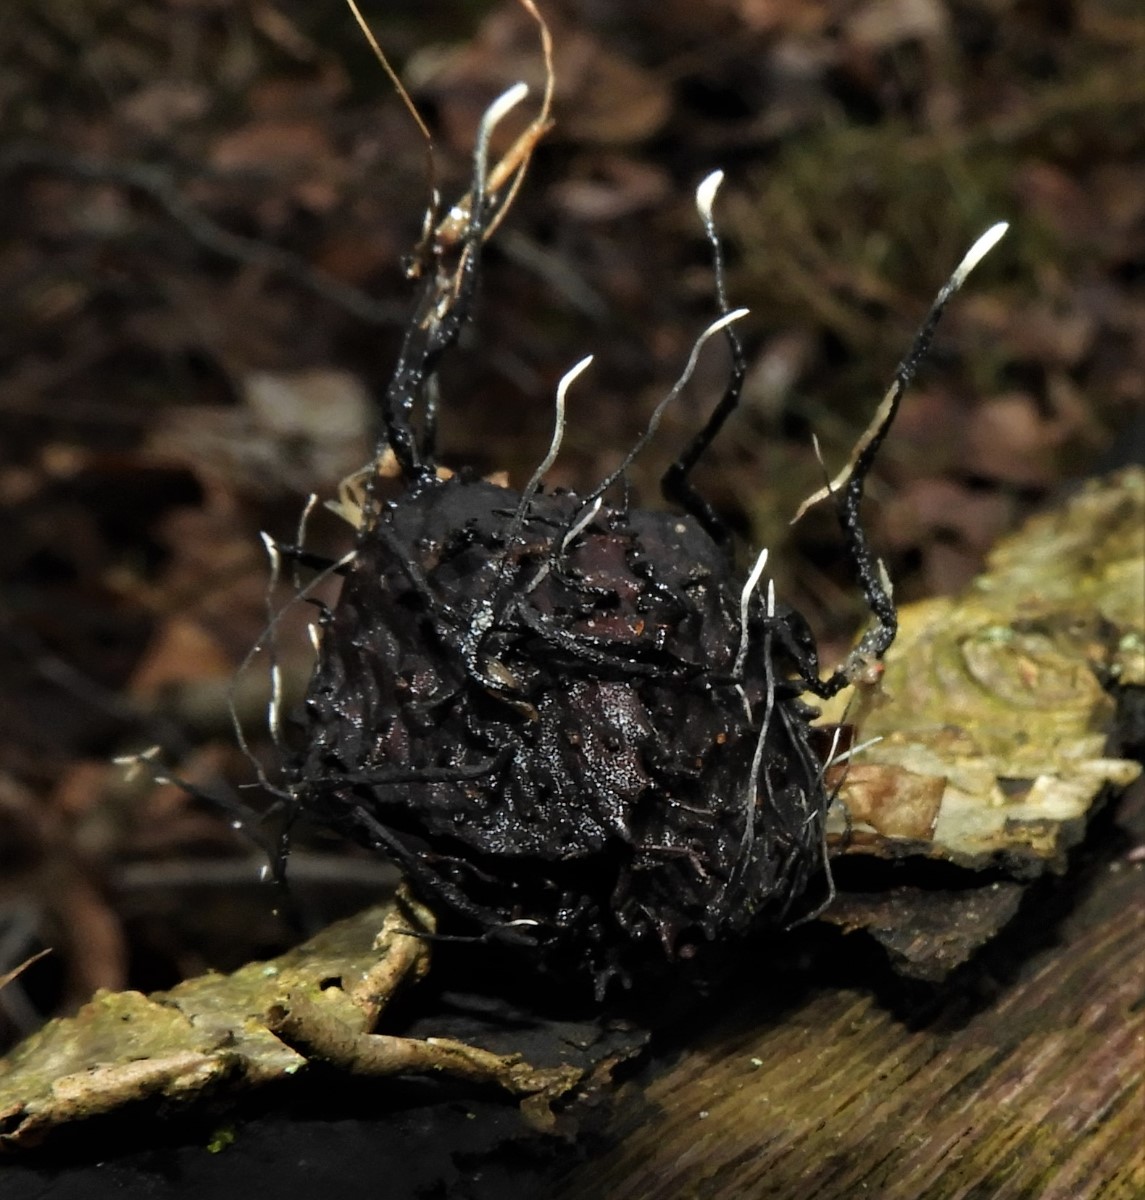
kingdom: Fungi
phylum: Ascomycota
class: Sordariomycetes
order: Xylariales
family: Xylariaceae
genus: Xylaria
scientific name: Xylaria carpophila
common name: bogskål-stødsvamp
